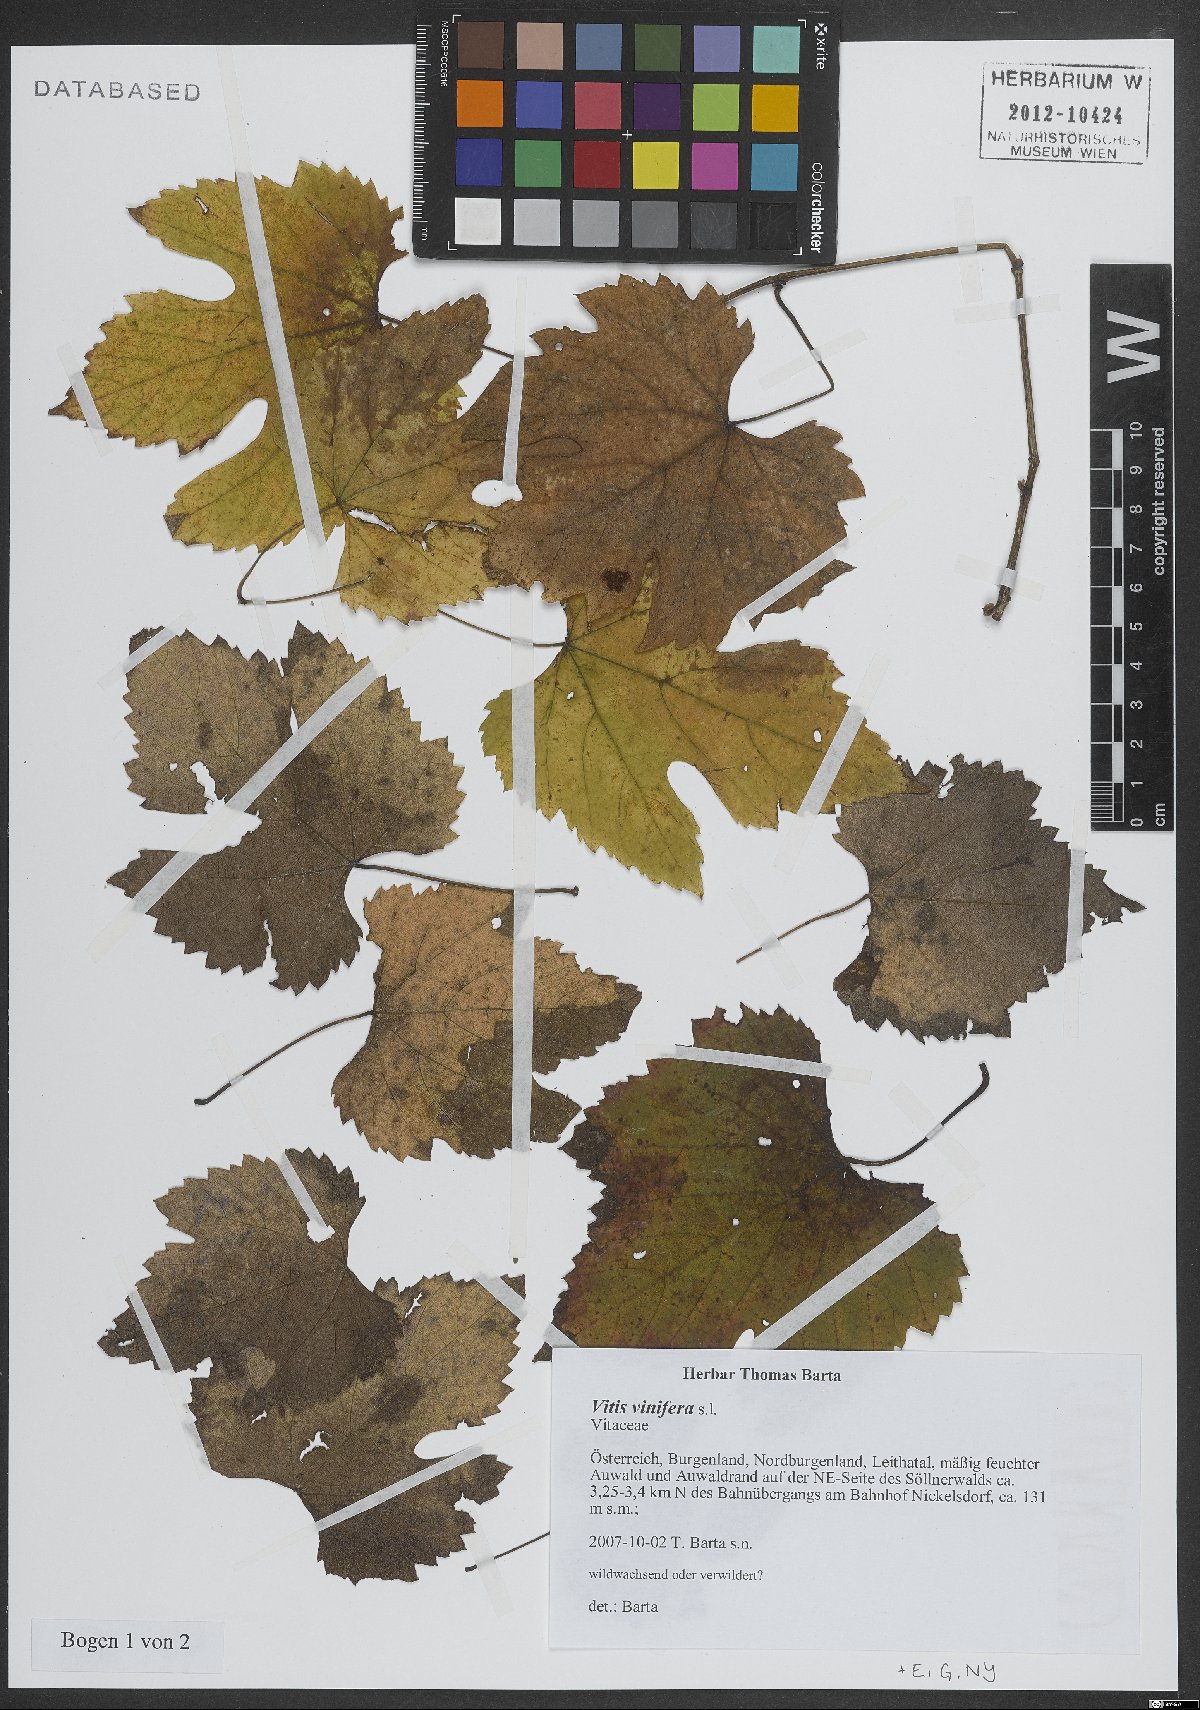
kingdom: Plantae
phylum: Tracheophyta
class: Magnoliopsida
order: Vitales
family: Vitaceae
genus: Vitis
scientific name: Vitis vinifera
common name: Grape-vine
